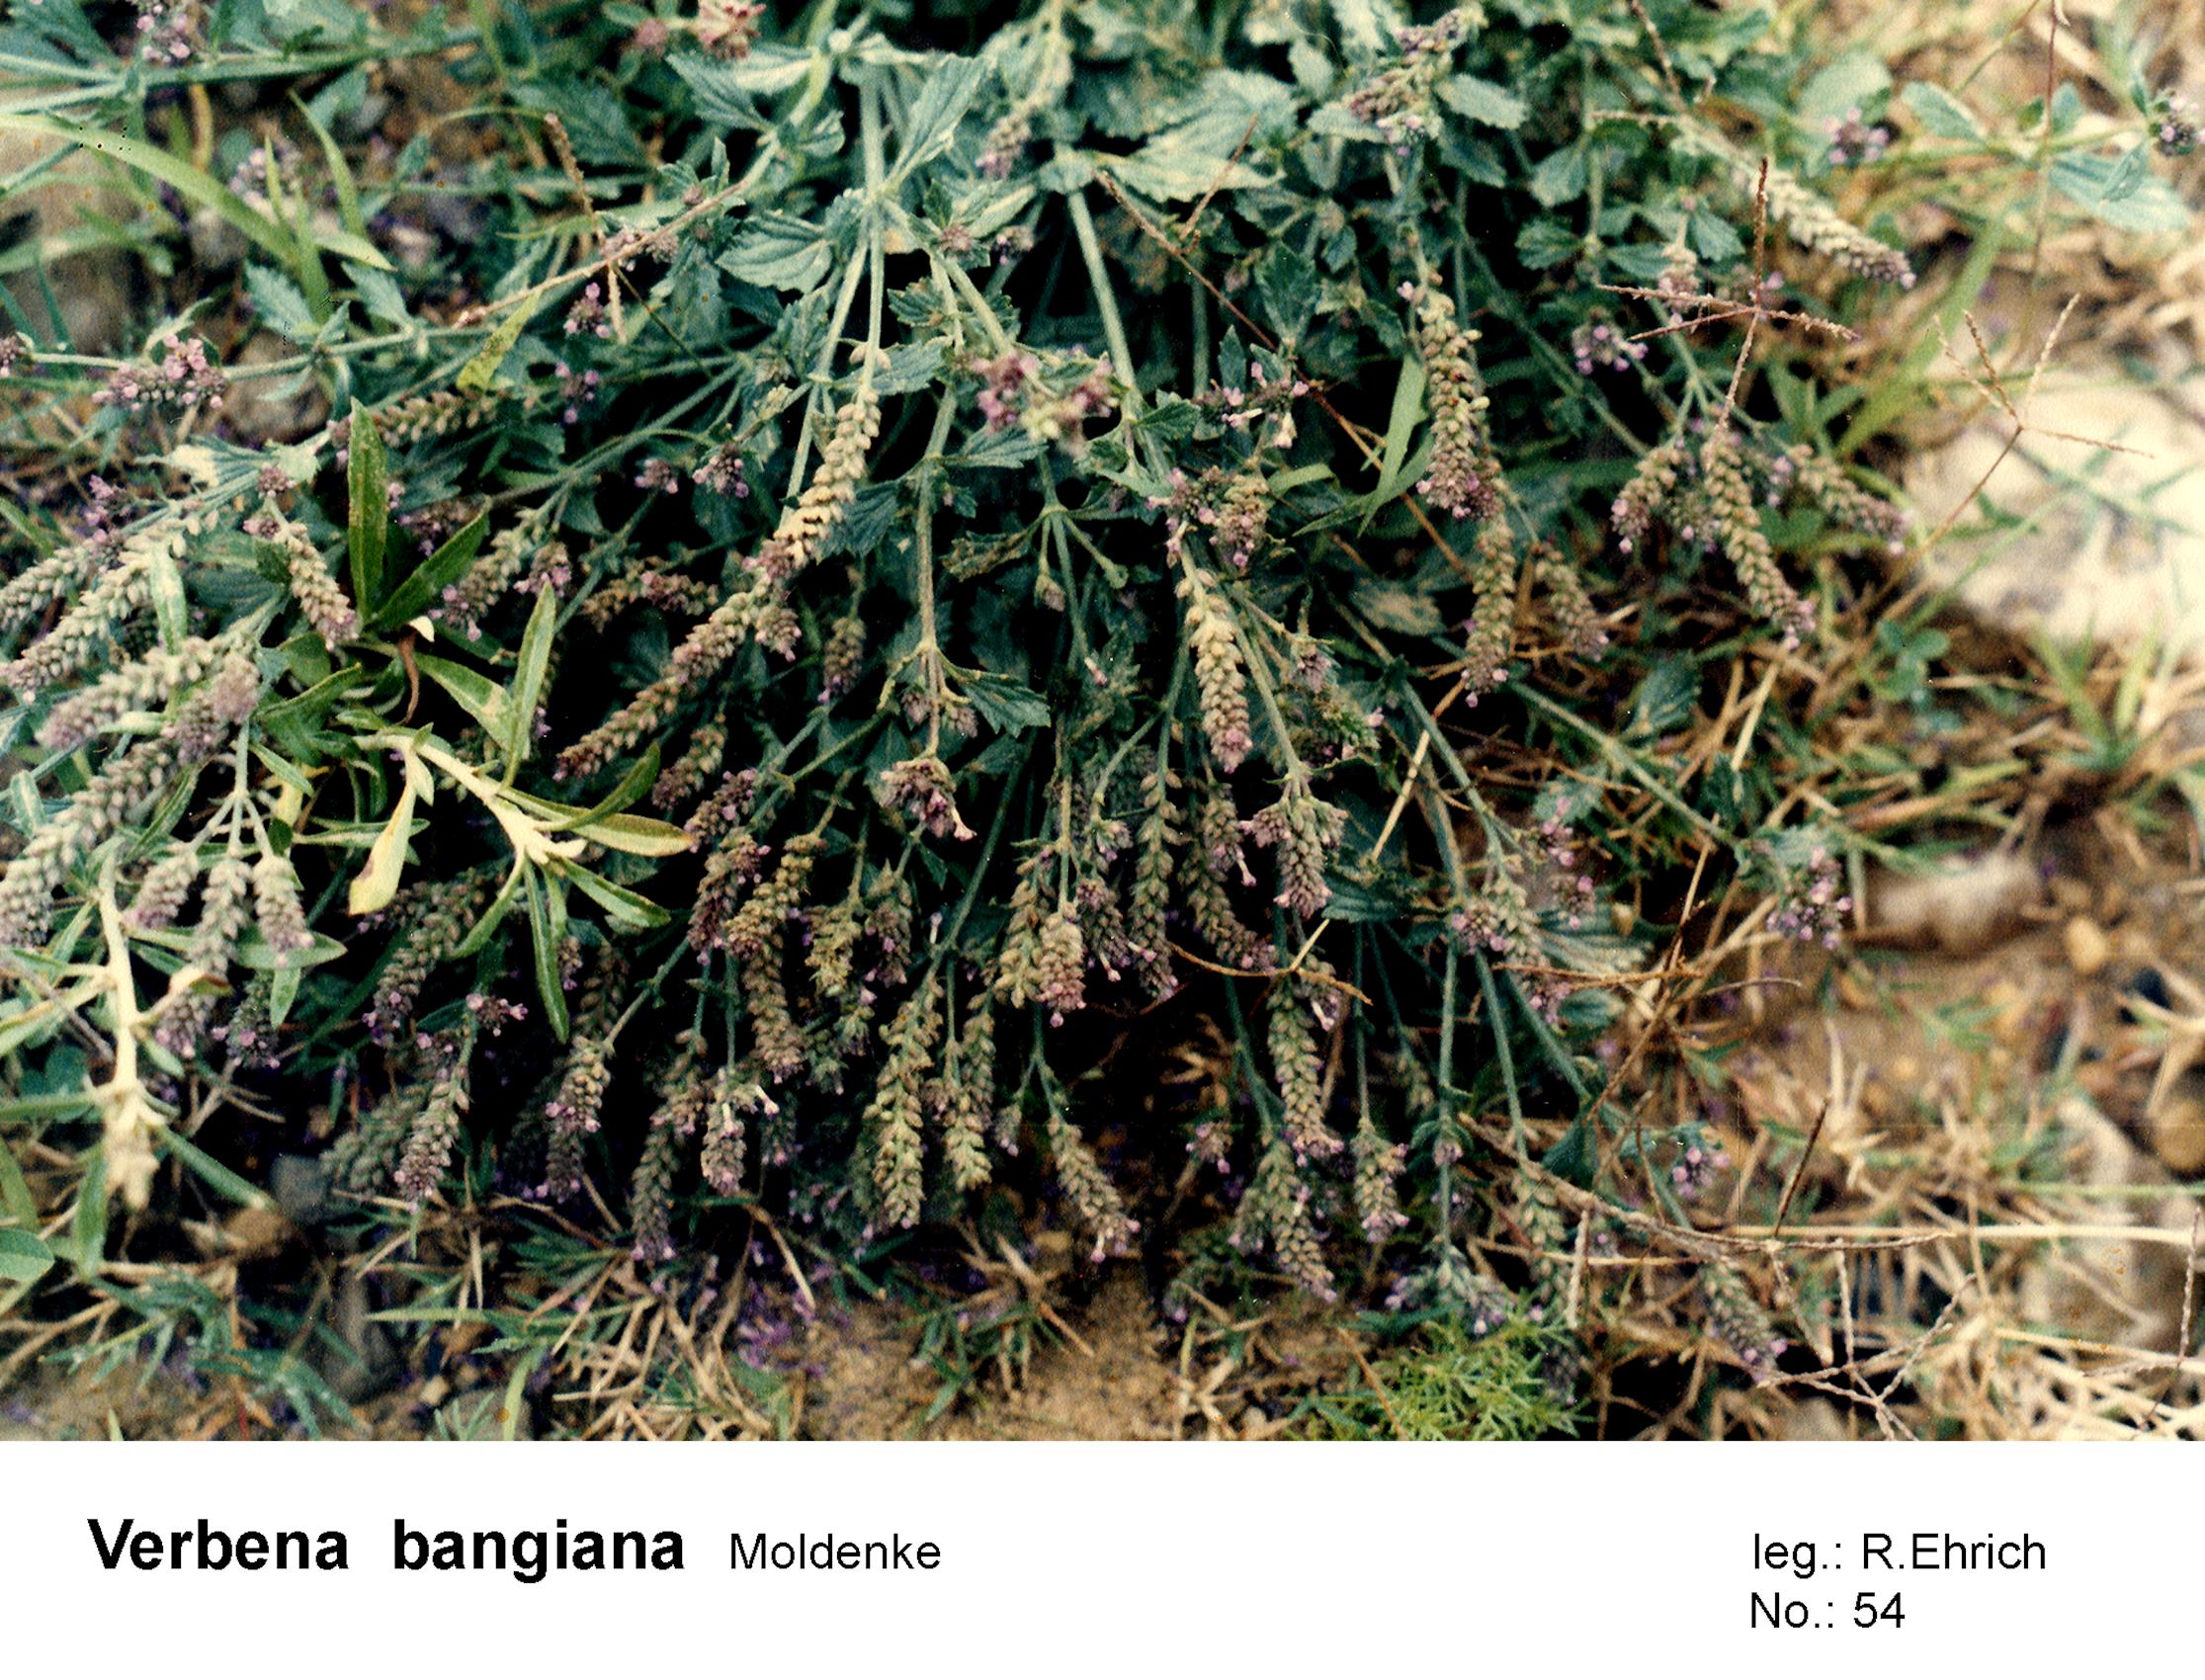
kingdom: Plantae
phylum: Tracheophyta
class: Magnoliopsida
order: Lamiales
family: Verbenaceae
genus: Verbena
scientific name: Verbena glabrata
